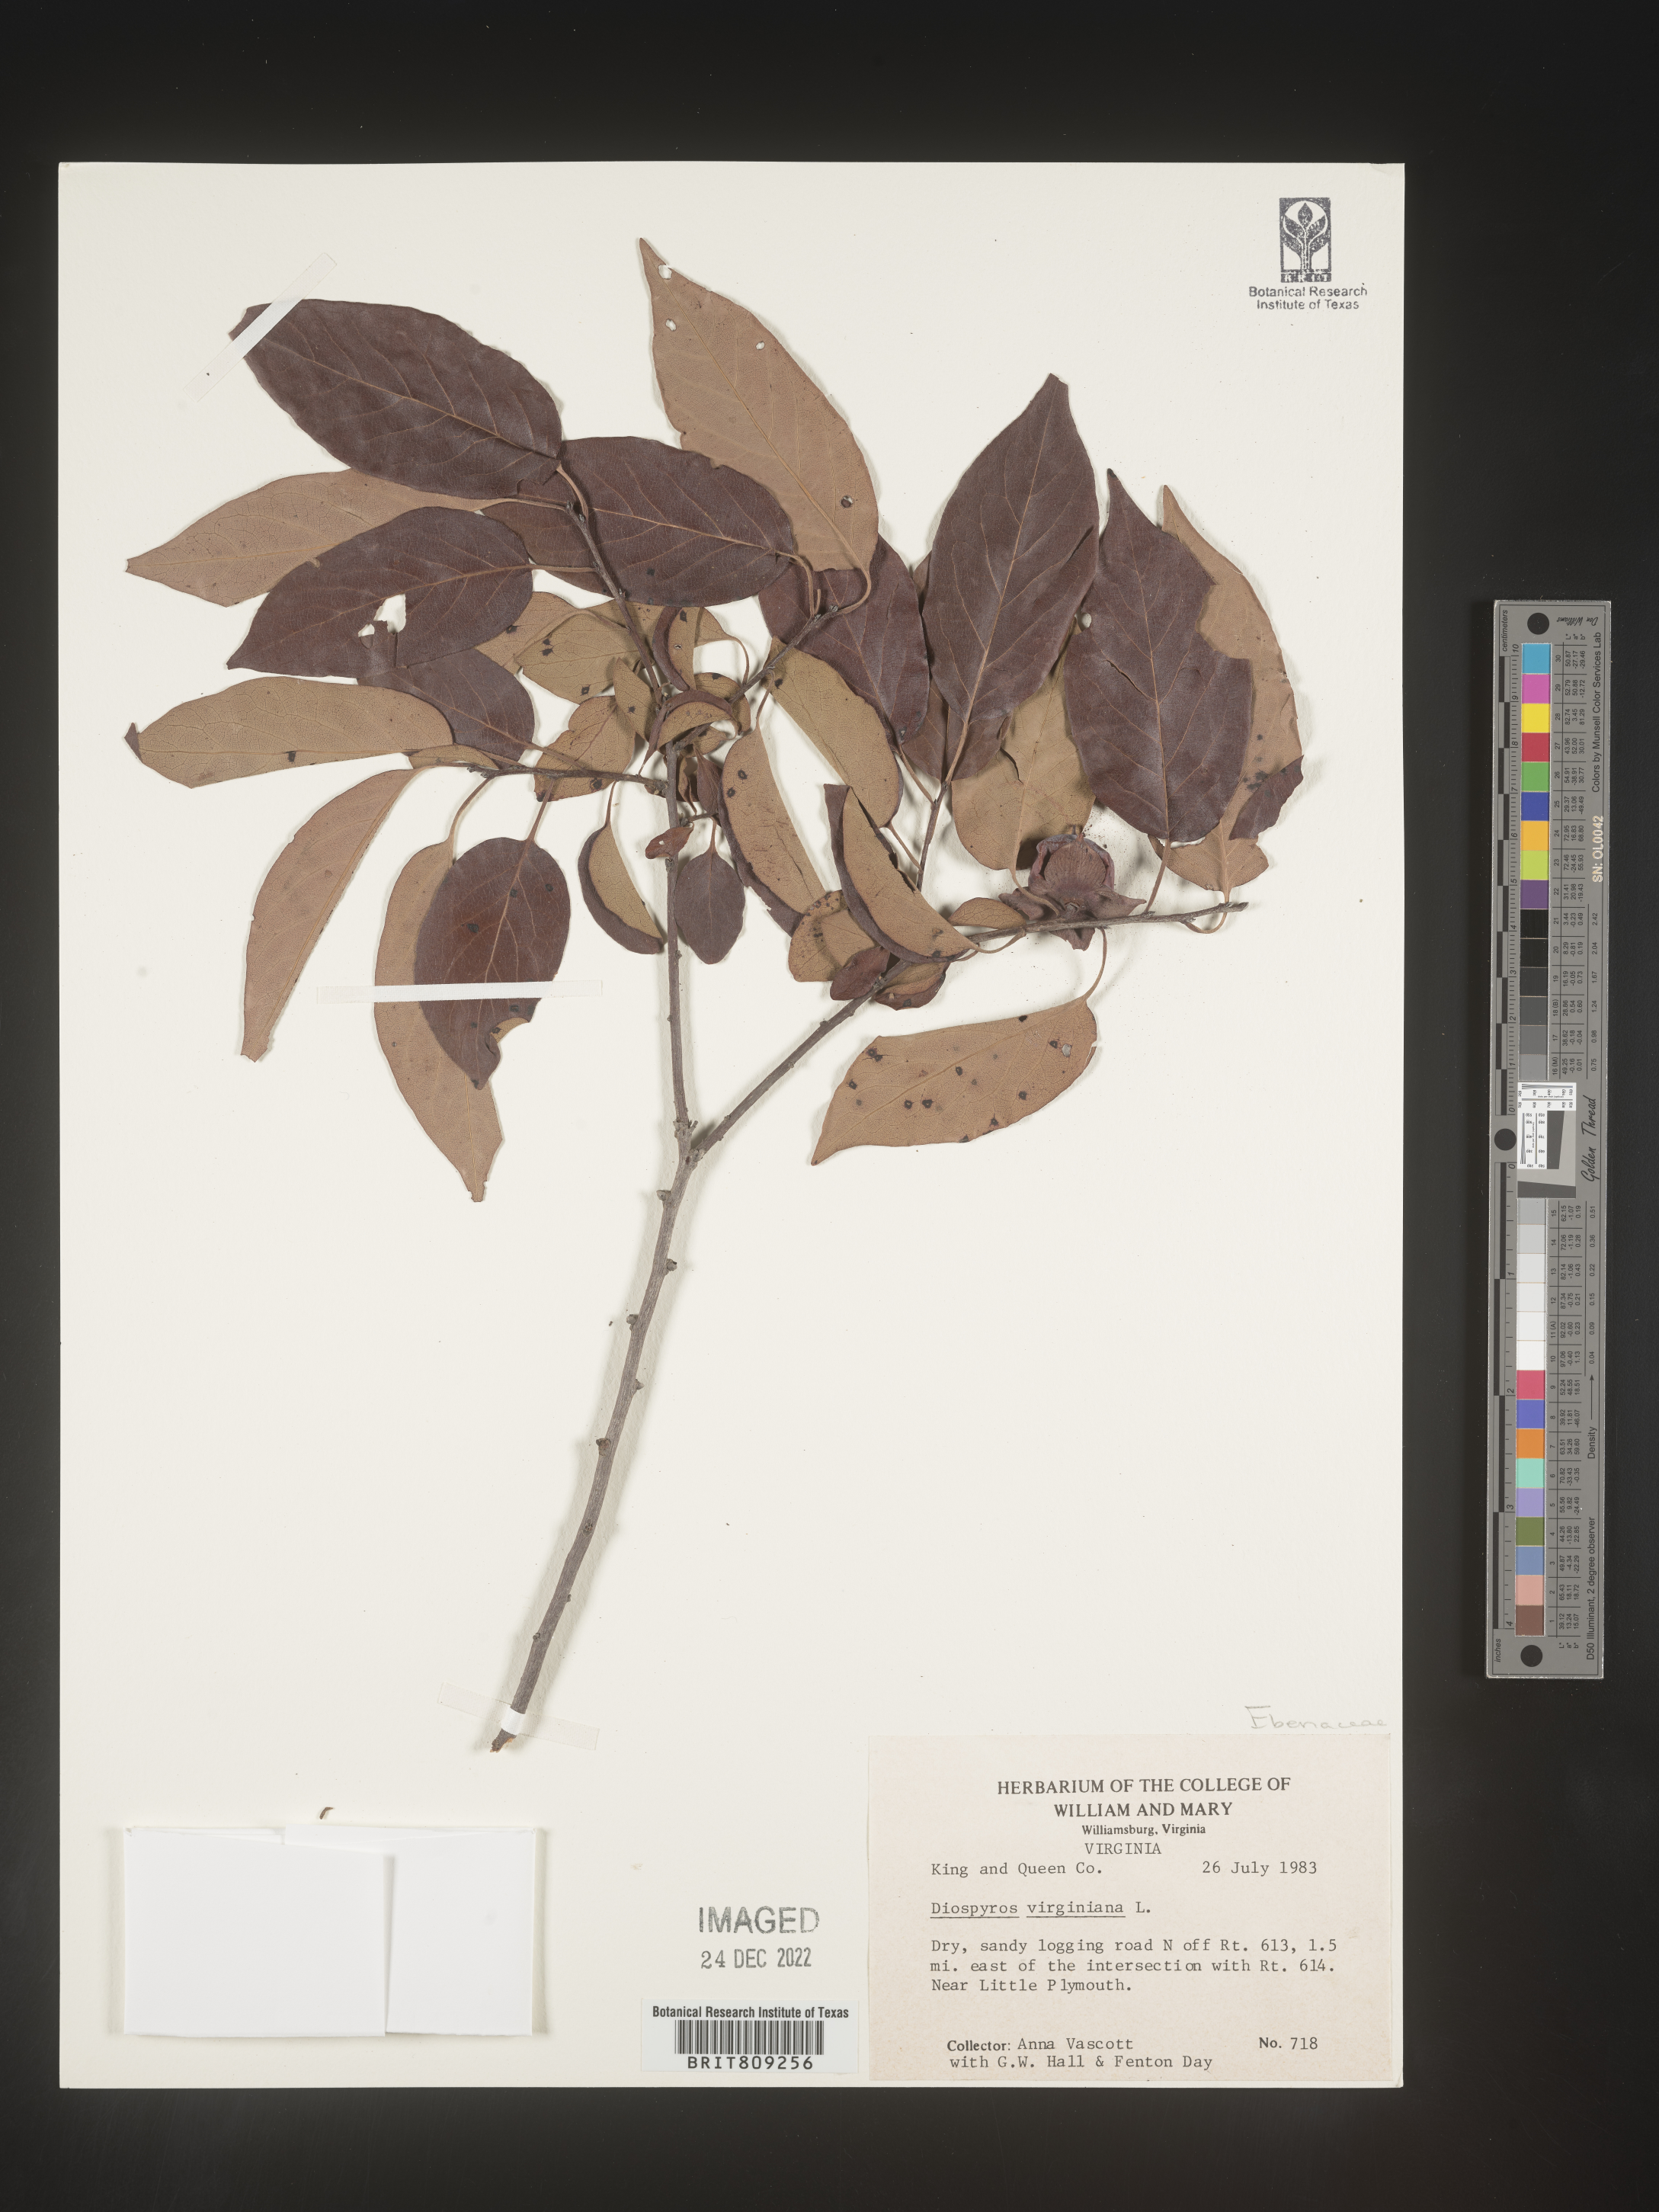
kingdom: Plantae
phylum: Tracheophyta
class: Magnoliopsida
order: Ericales
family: Ebenaceae
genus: Diospyros
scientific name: Diospyros virginiana
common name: Persimmon
